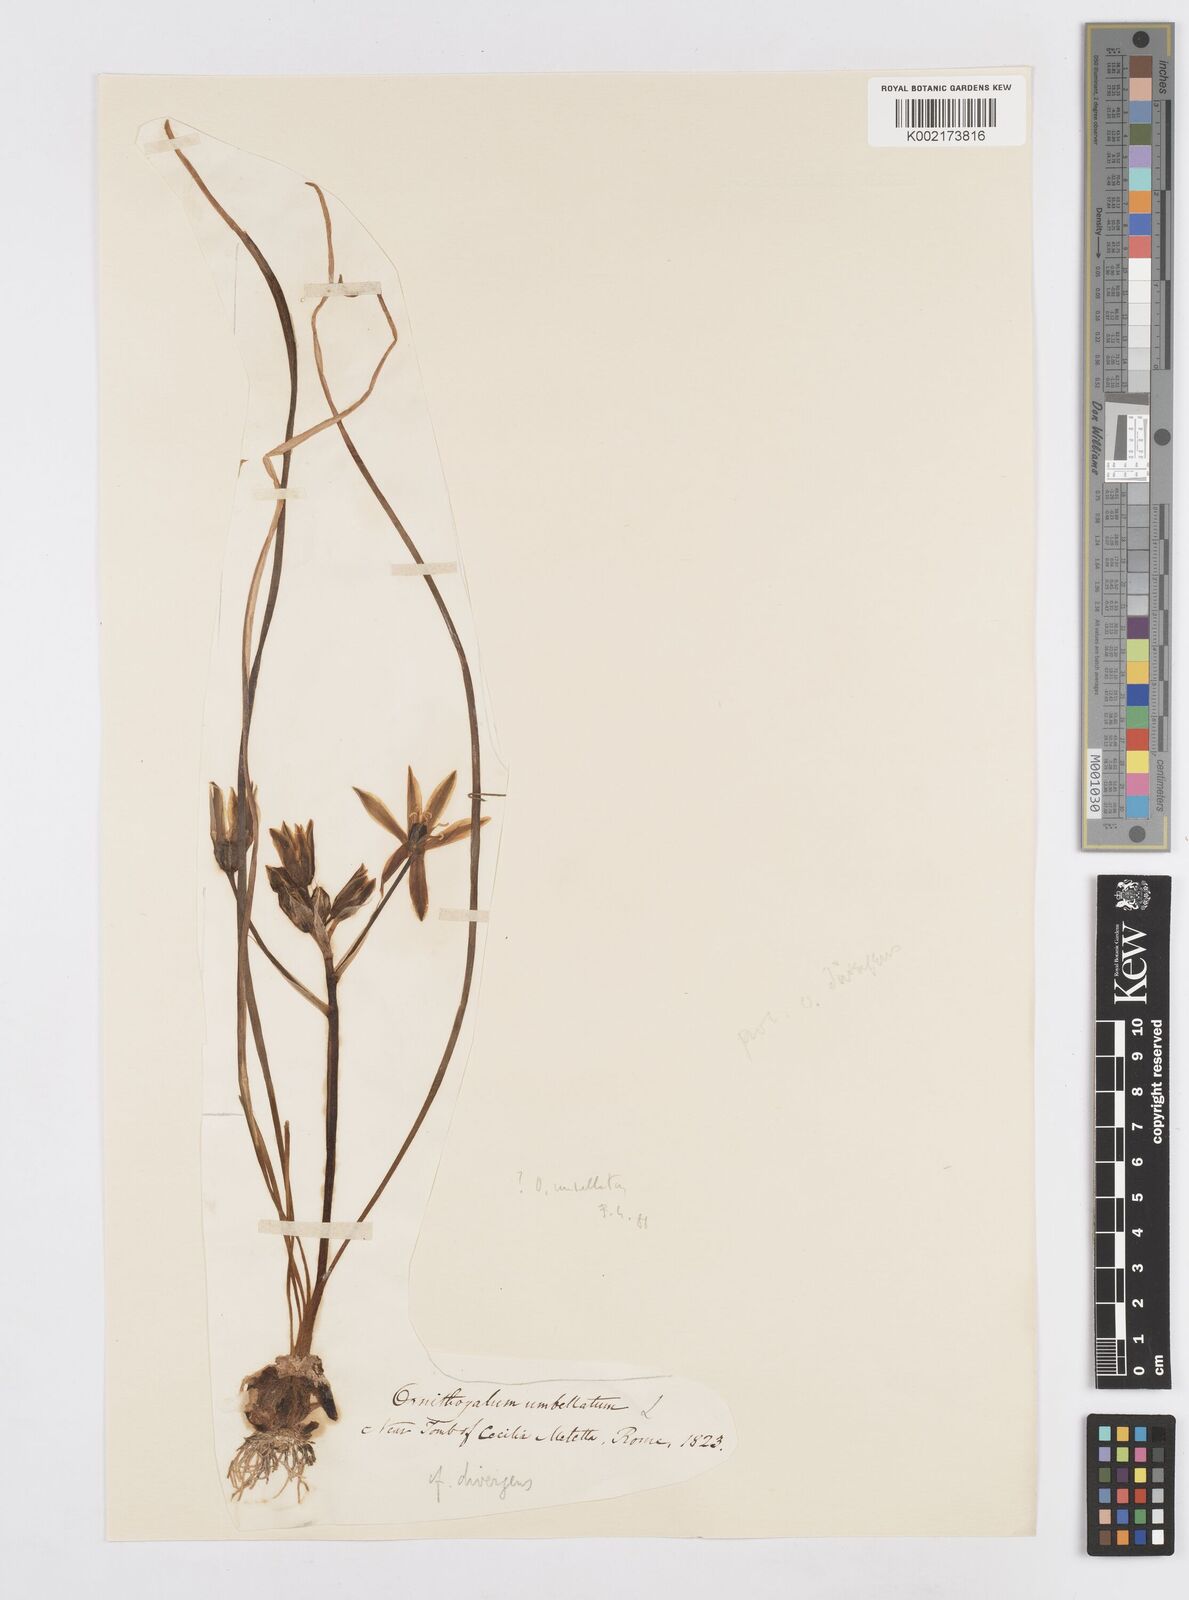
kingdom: Plantae
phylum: Tracheophyta
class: Liliopsida
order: Asparagales
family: Asparagaceae
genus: Ornithogalum
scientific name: Ornithogalum umbellatum
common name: Garden star-of-bethlehem
